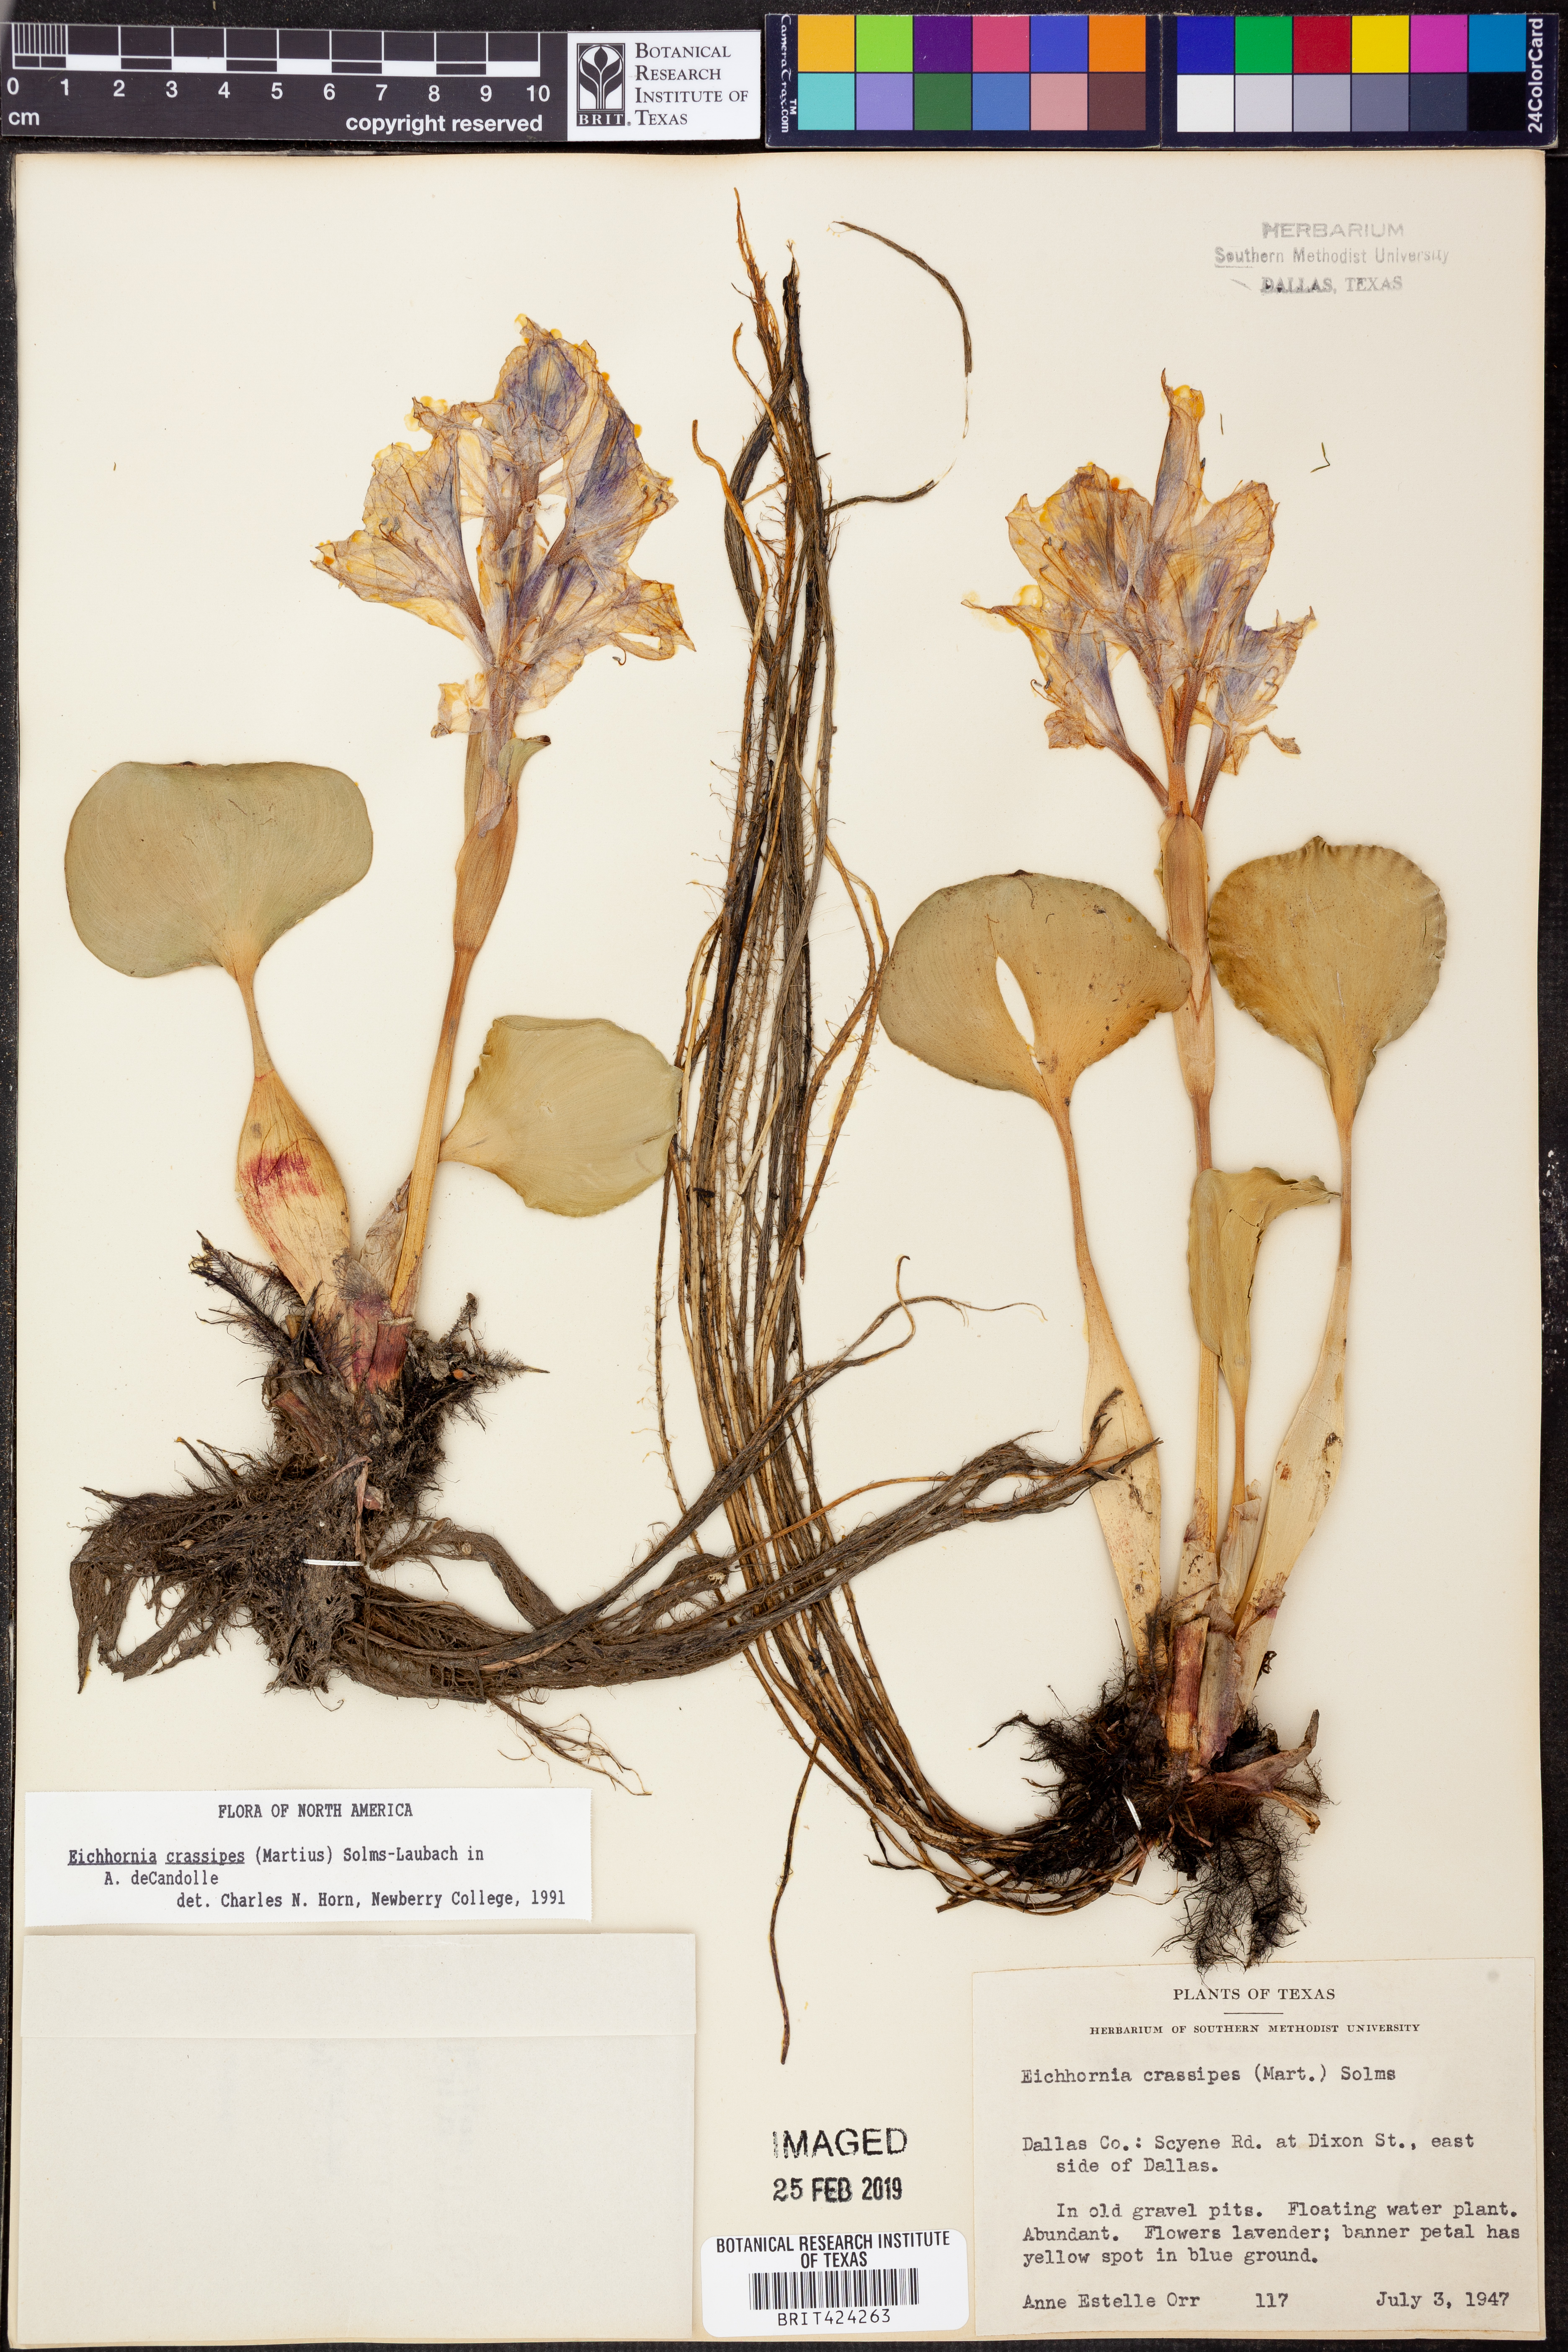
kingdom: Plantae
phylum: Tracheophyta
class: Liliopsida
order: Commelinales
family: Pontederiaceae
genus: Pontederia
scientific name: Pontederia crassipes
